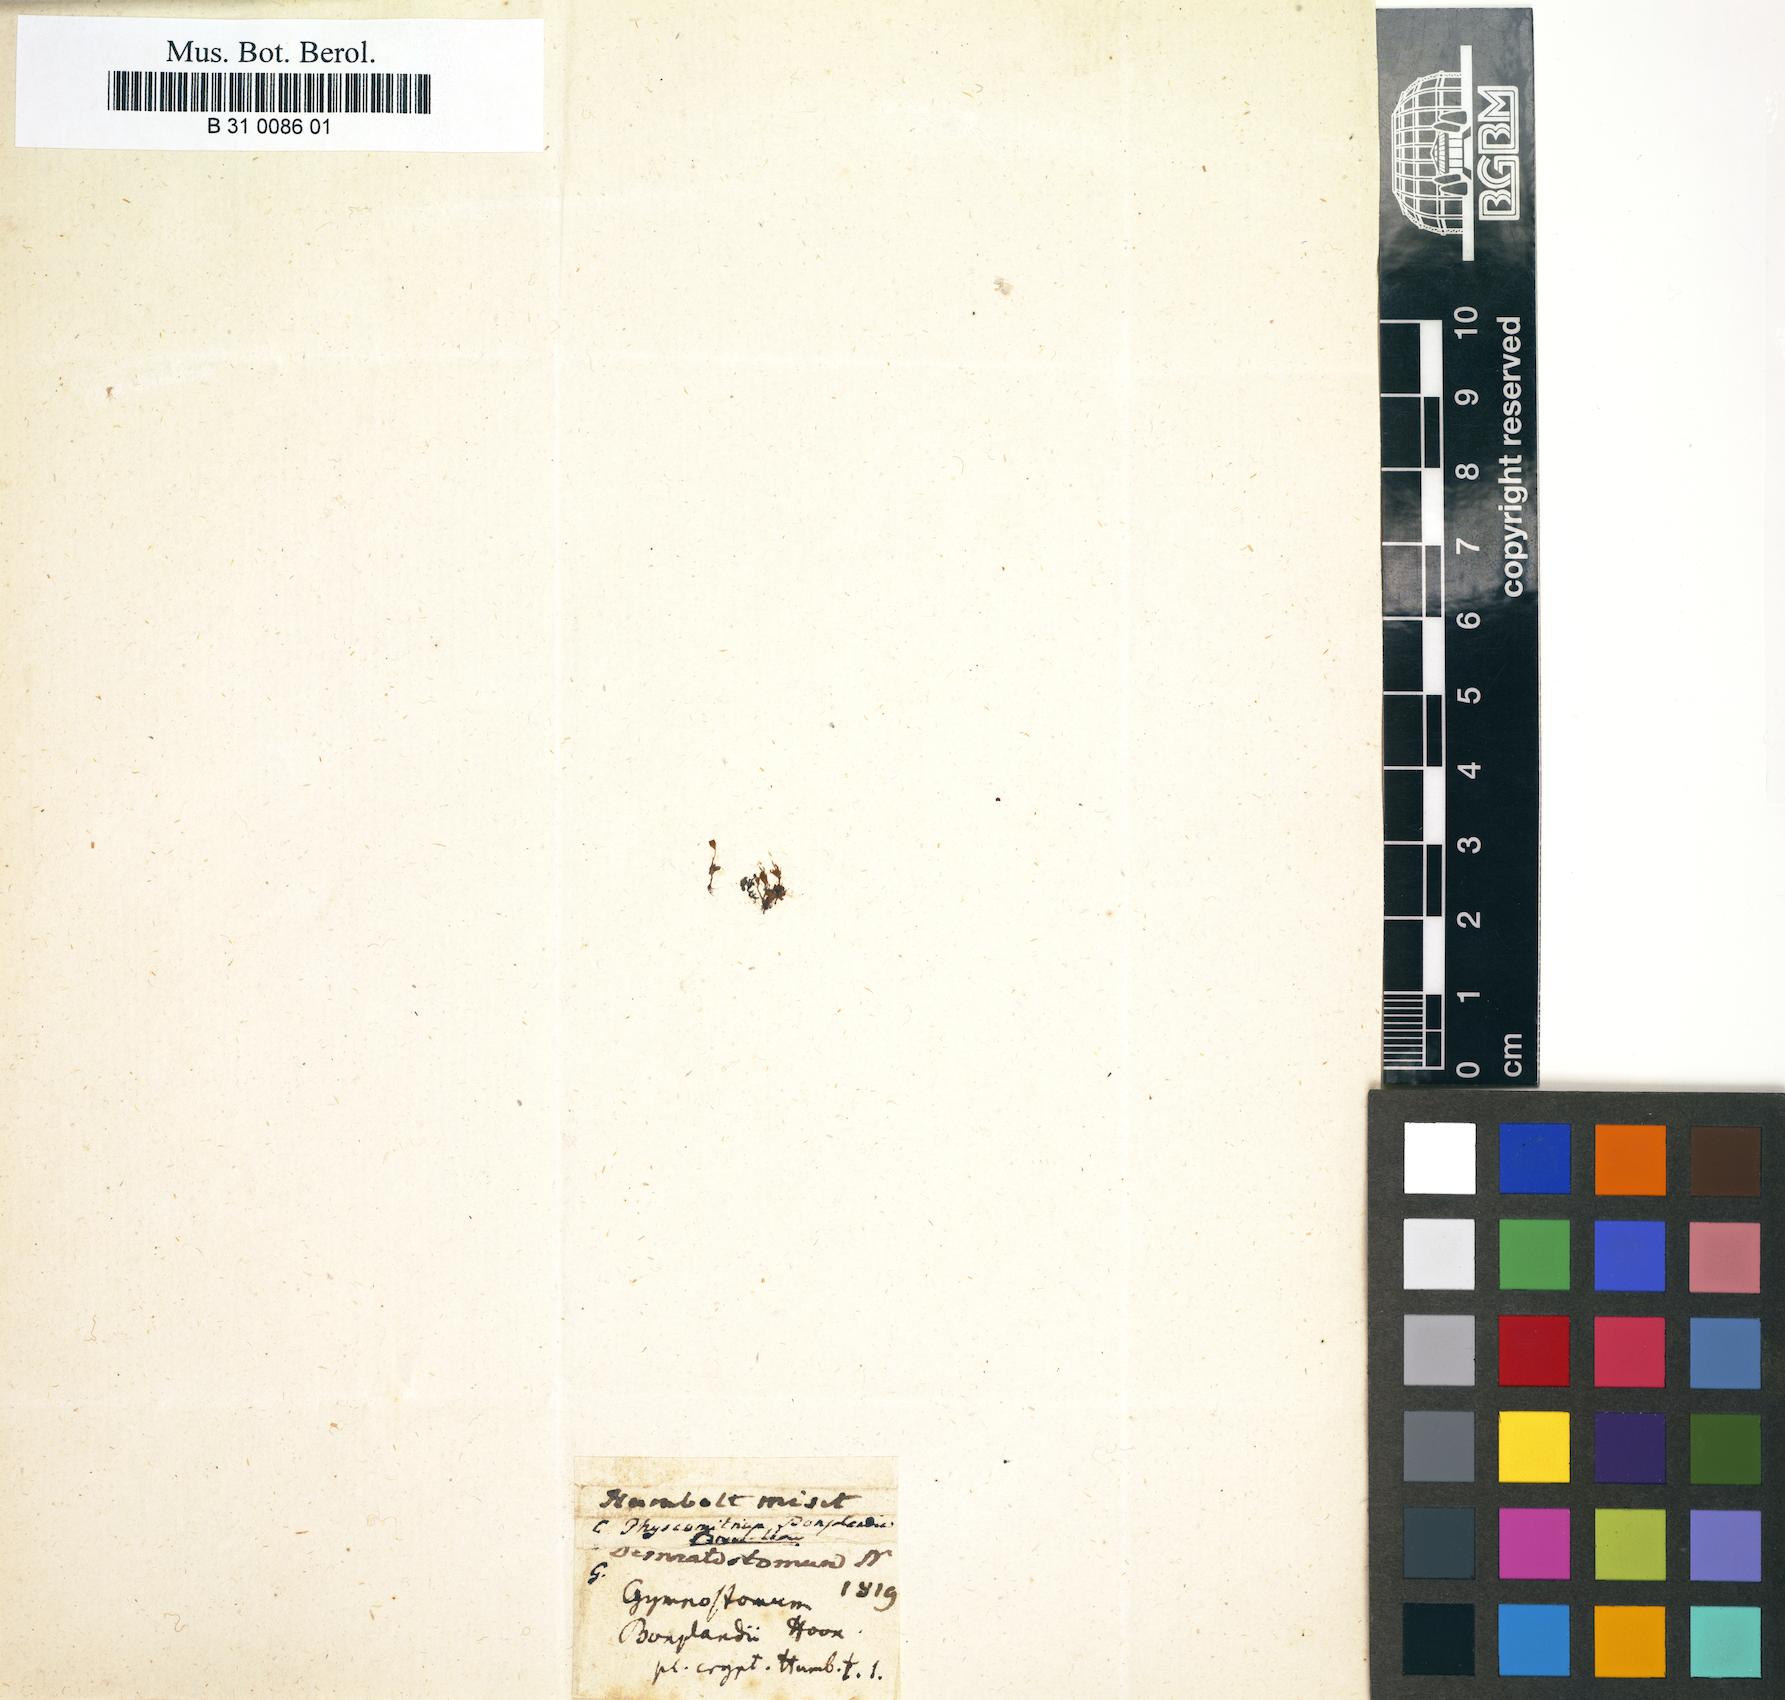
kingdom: Plantae
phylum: Bryophyta
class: Bryopsida
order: Funariales
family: Funariaceae
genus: Entosthodon
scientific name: Entosthodon bonplandii
